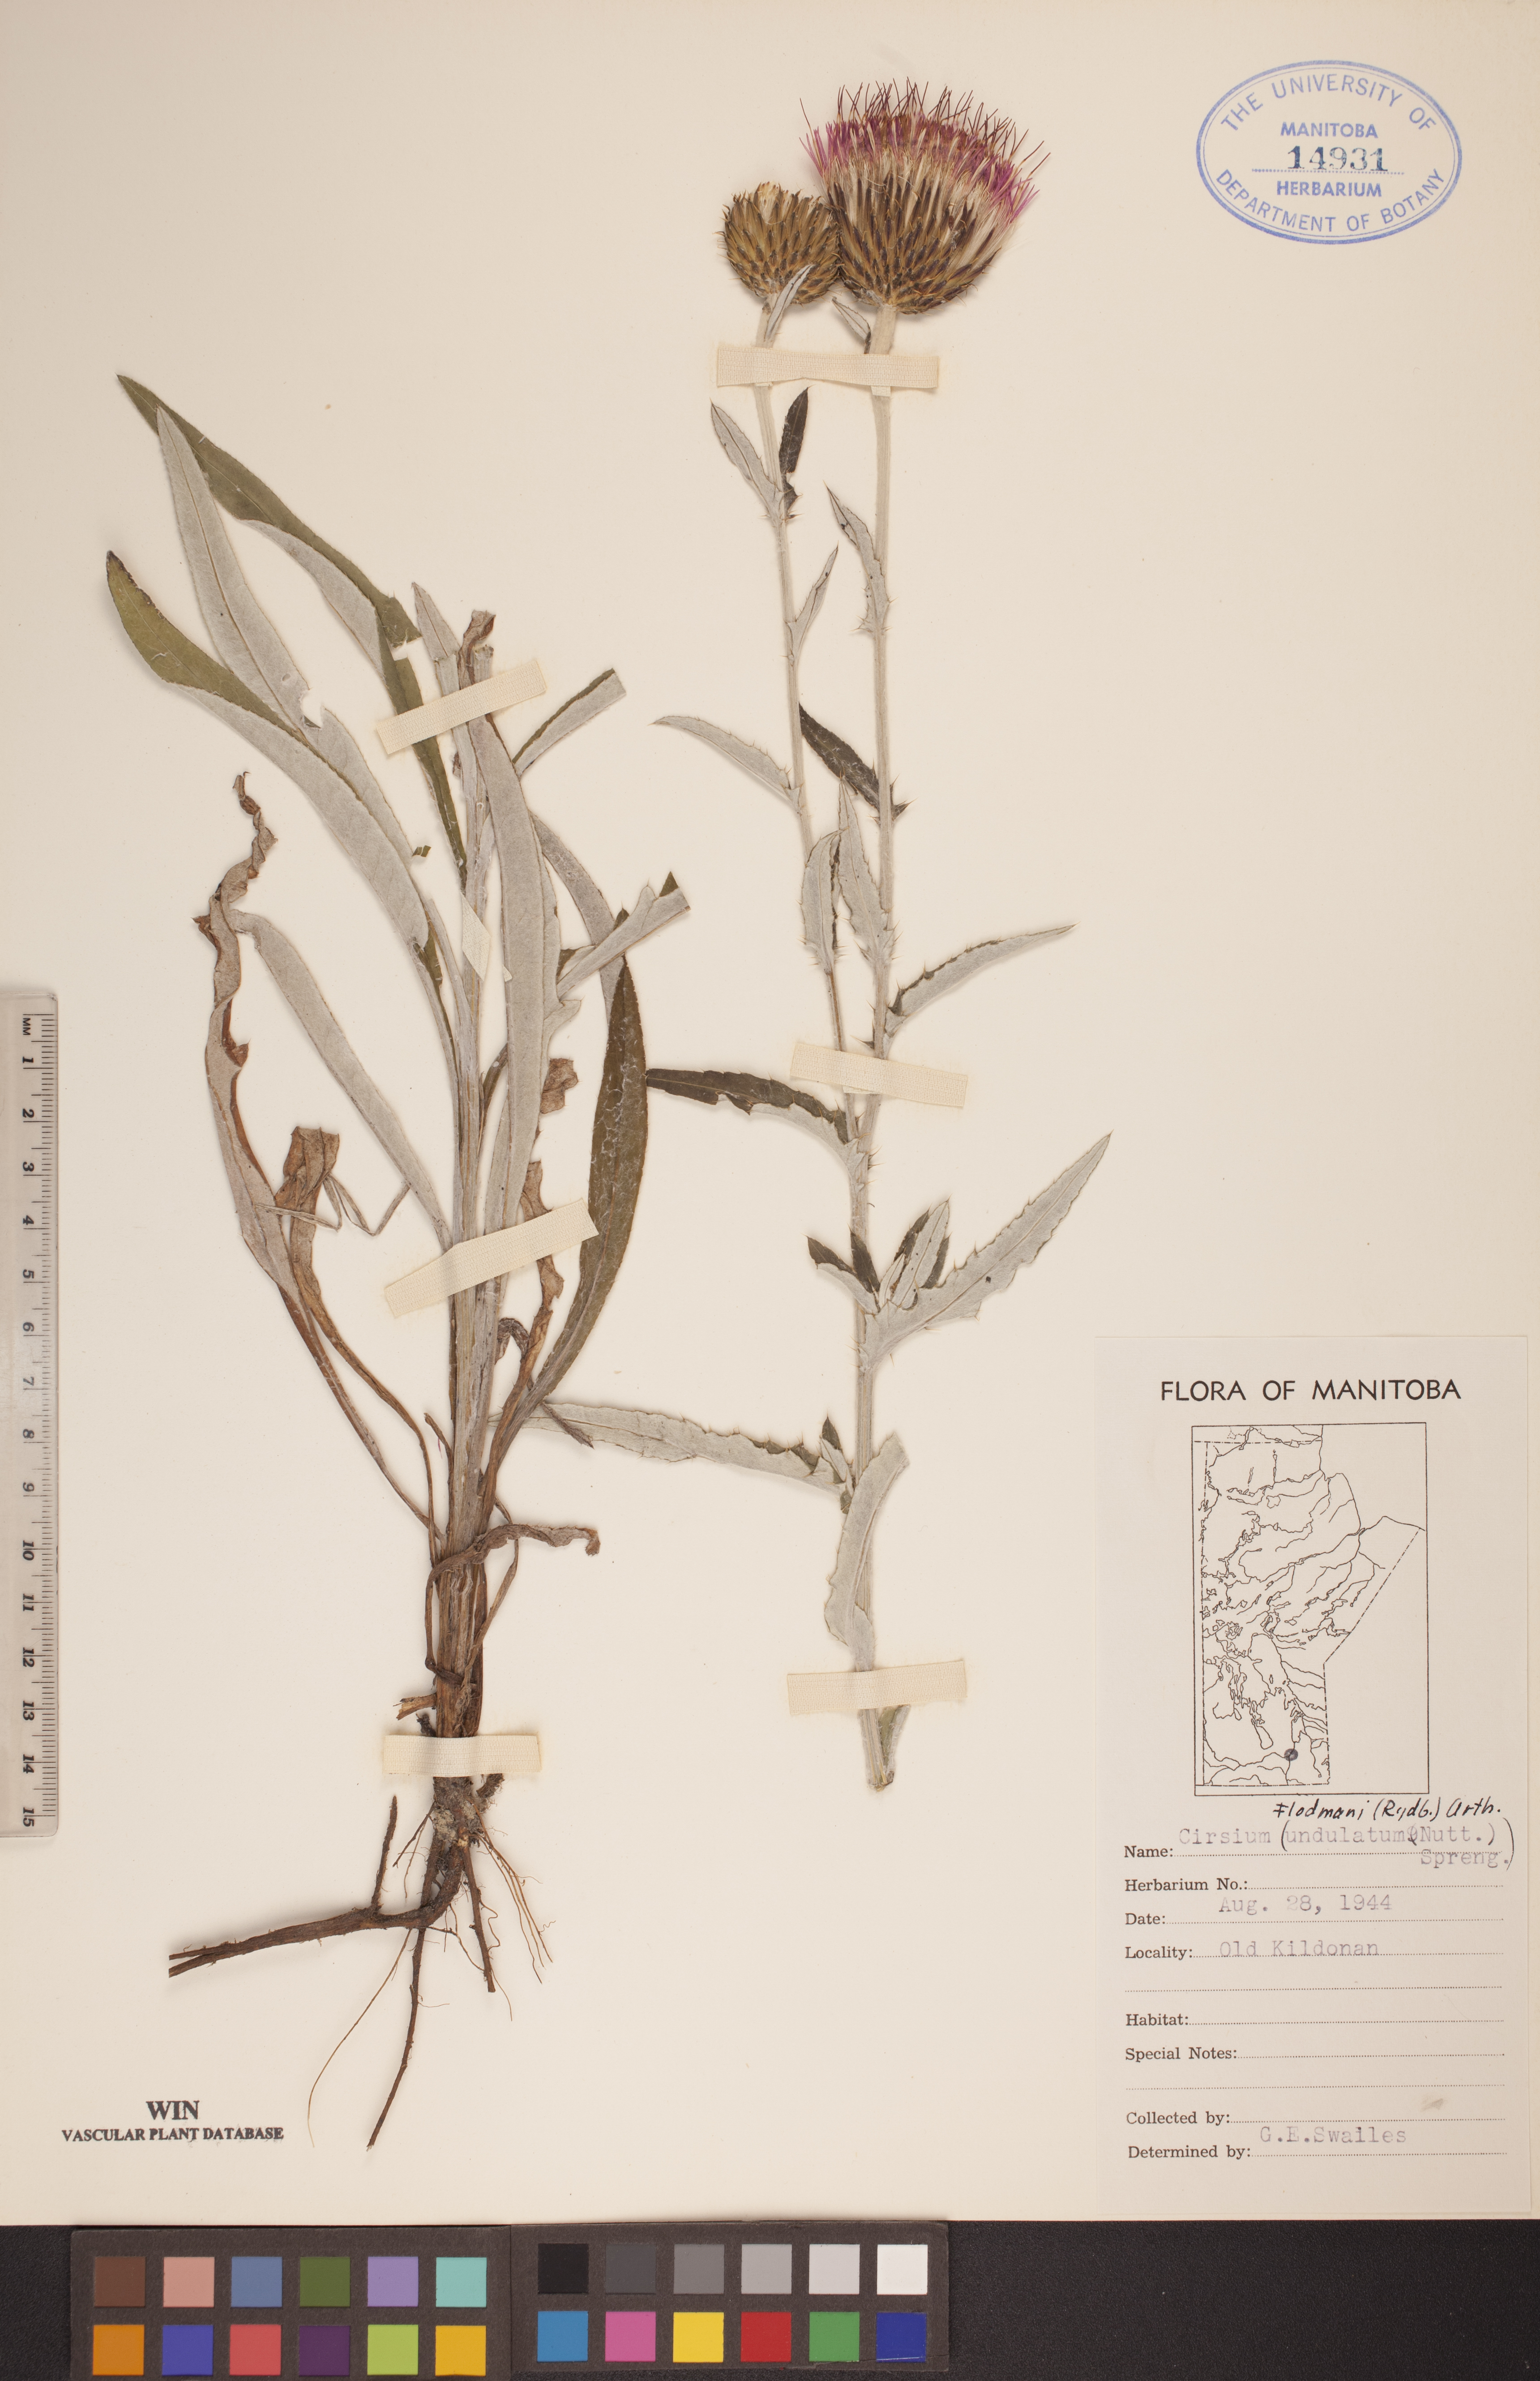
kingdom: Plantae
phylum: Tracheophyta
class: Magnoliopsida
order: Asterales
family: Asteraceae
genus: Cirsium
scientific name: Cirsium flodmanii
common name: Flodman's thistle
